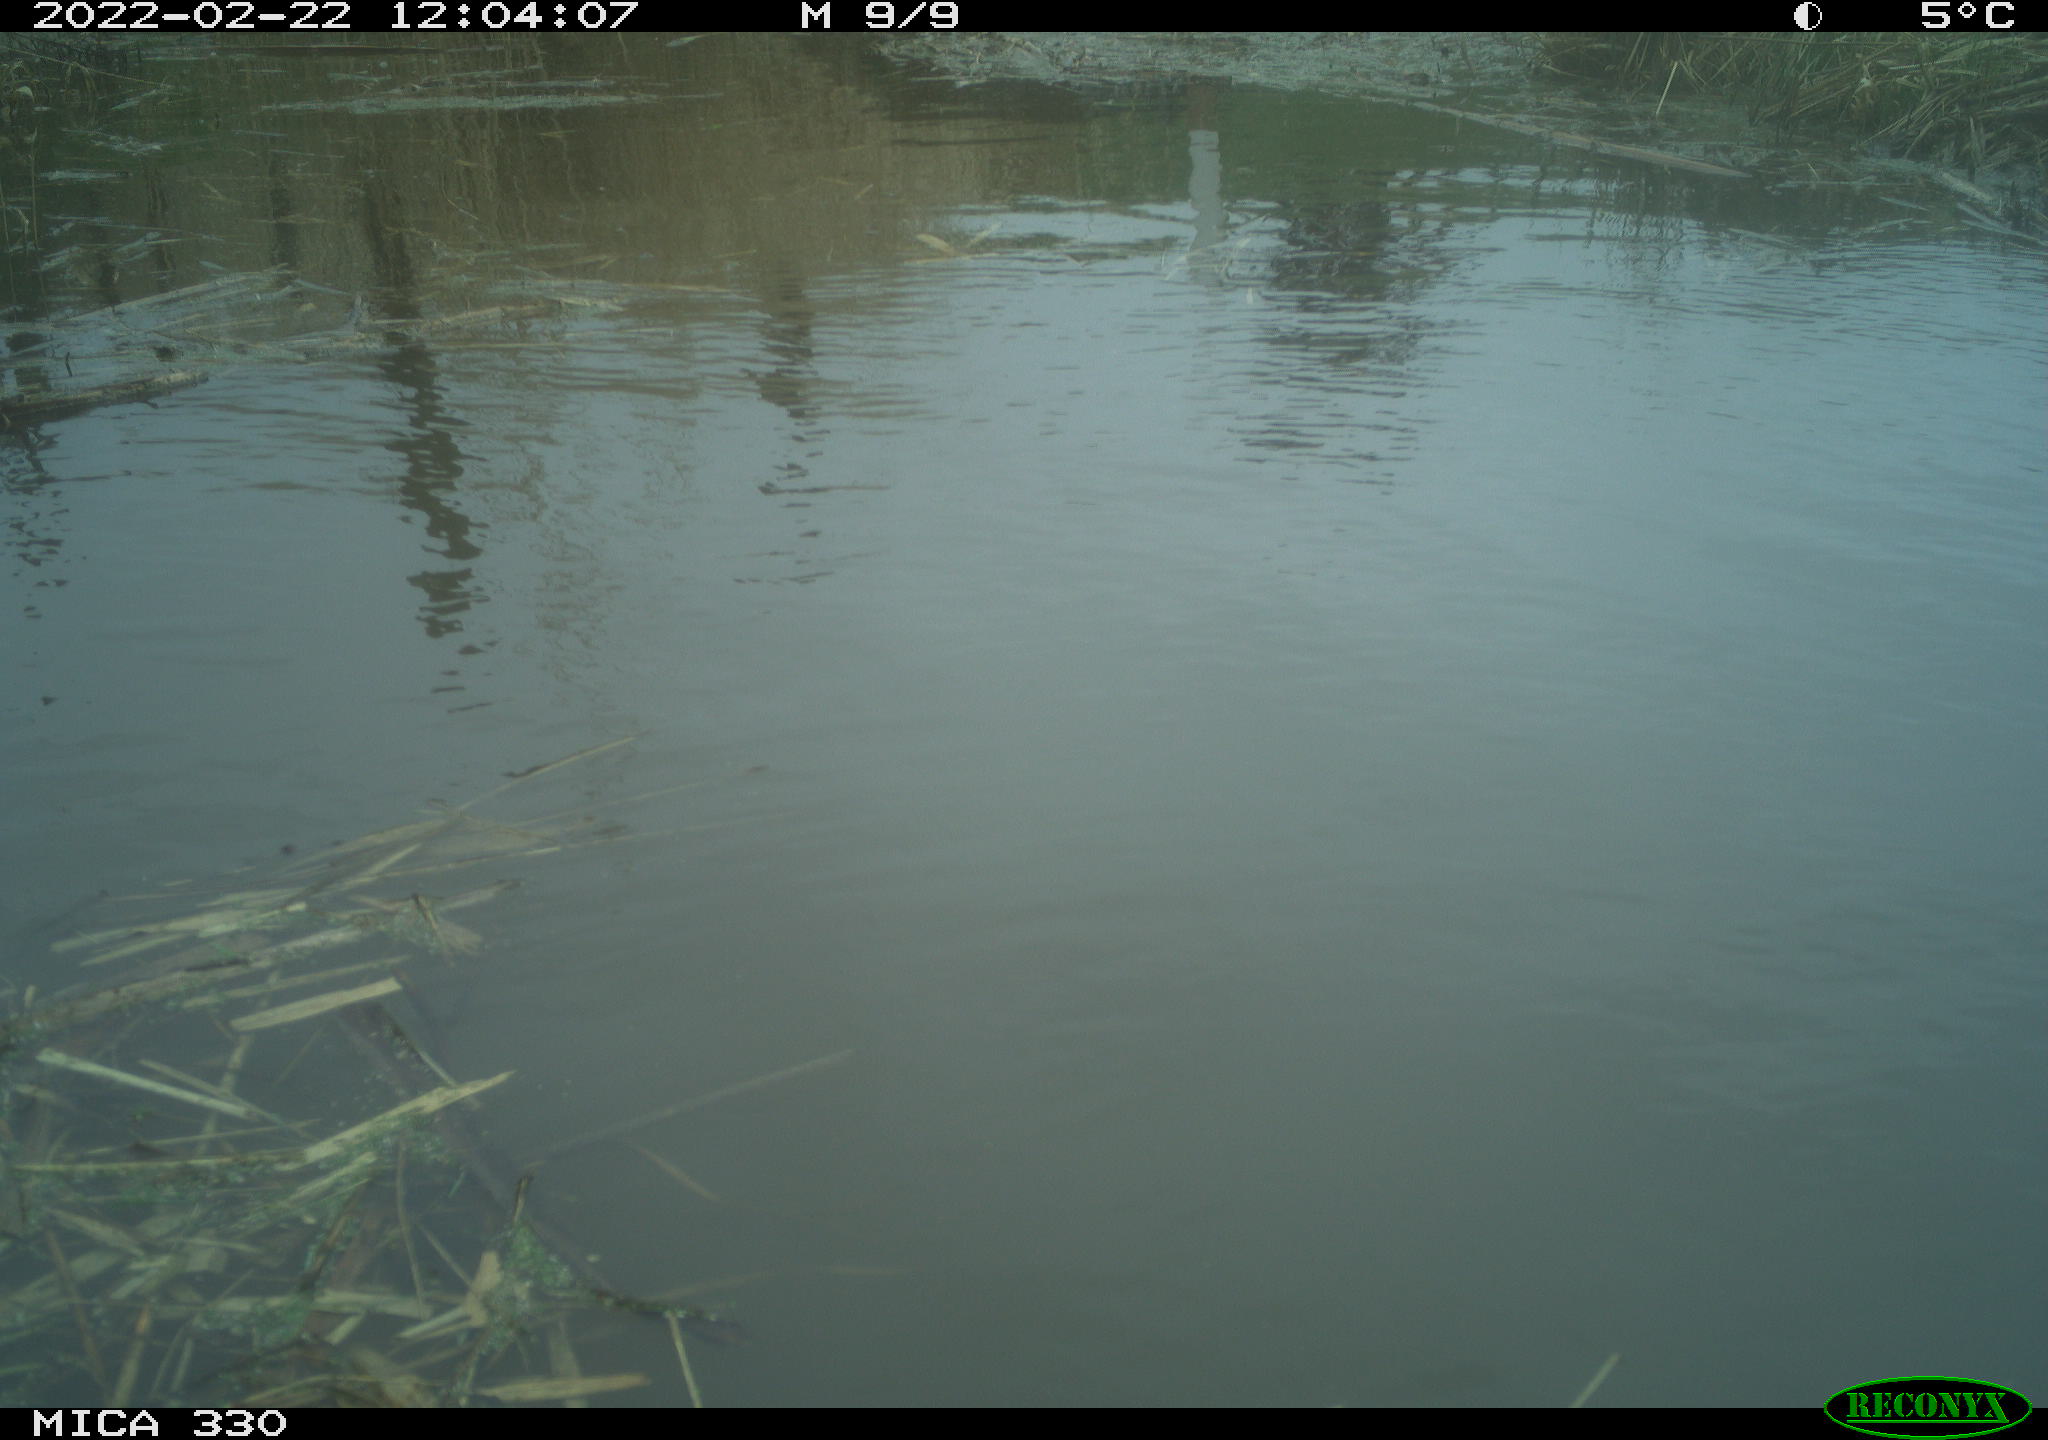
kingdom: Animalia
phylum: Chordata
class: Aves
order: Gruiformes
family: Rallidae
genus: Fulica
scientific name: Fulica atra
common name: Eurasian coot
